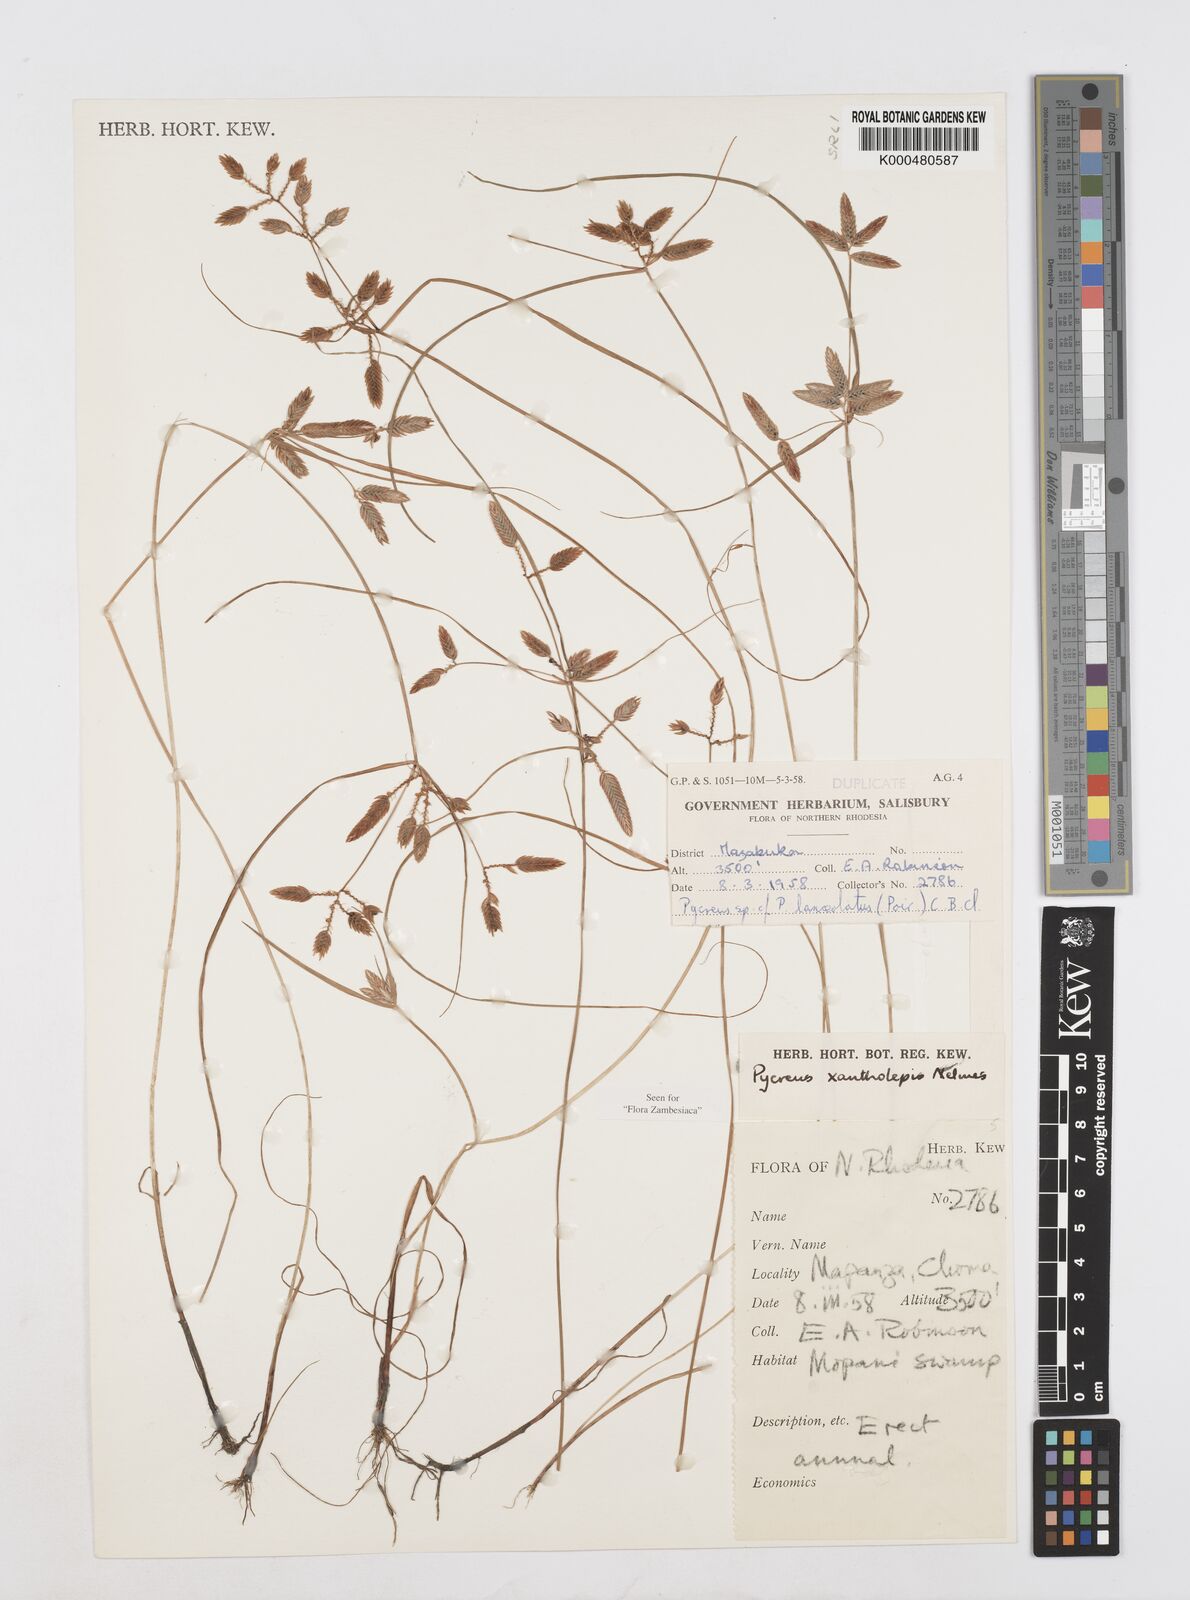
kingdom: Plantae
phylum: Tracheophyta
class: Liliopsida
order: Poales
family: Cyperaceae
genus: Cyperus
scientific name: Cyperus xantholepis
